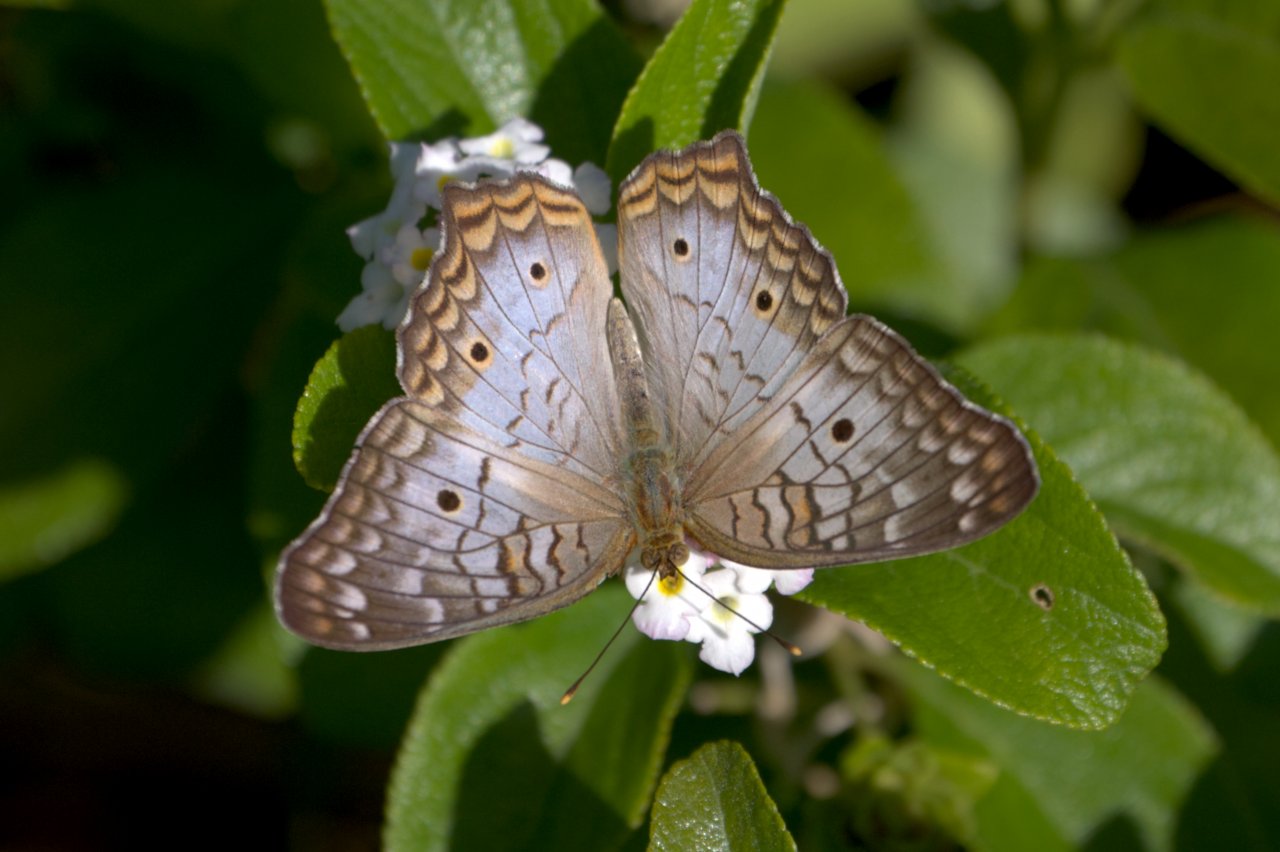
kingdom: Animalia
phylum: Arthropoda
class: Insecta
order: Lepidoptera
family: Nymphalidae
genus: Anartia
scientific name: Anartia jatrophae
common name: White Peacock
